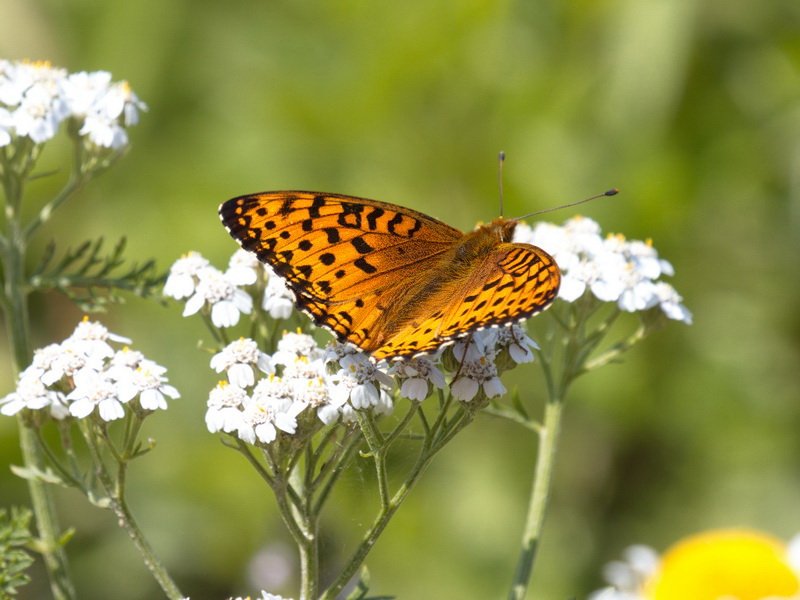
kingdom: Animalia
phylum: Arthropoda
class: Insecta
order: Lepidoptera
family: Nymphalidae
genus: Speyeria
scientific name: Speyeria aphrodite
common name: Aphrodite Fritillary
